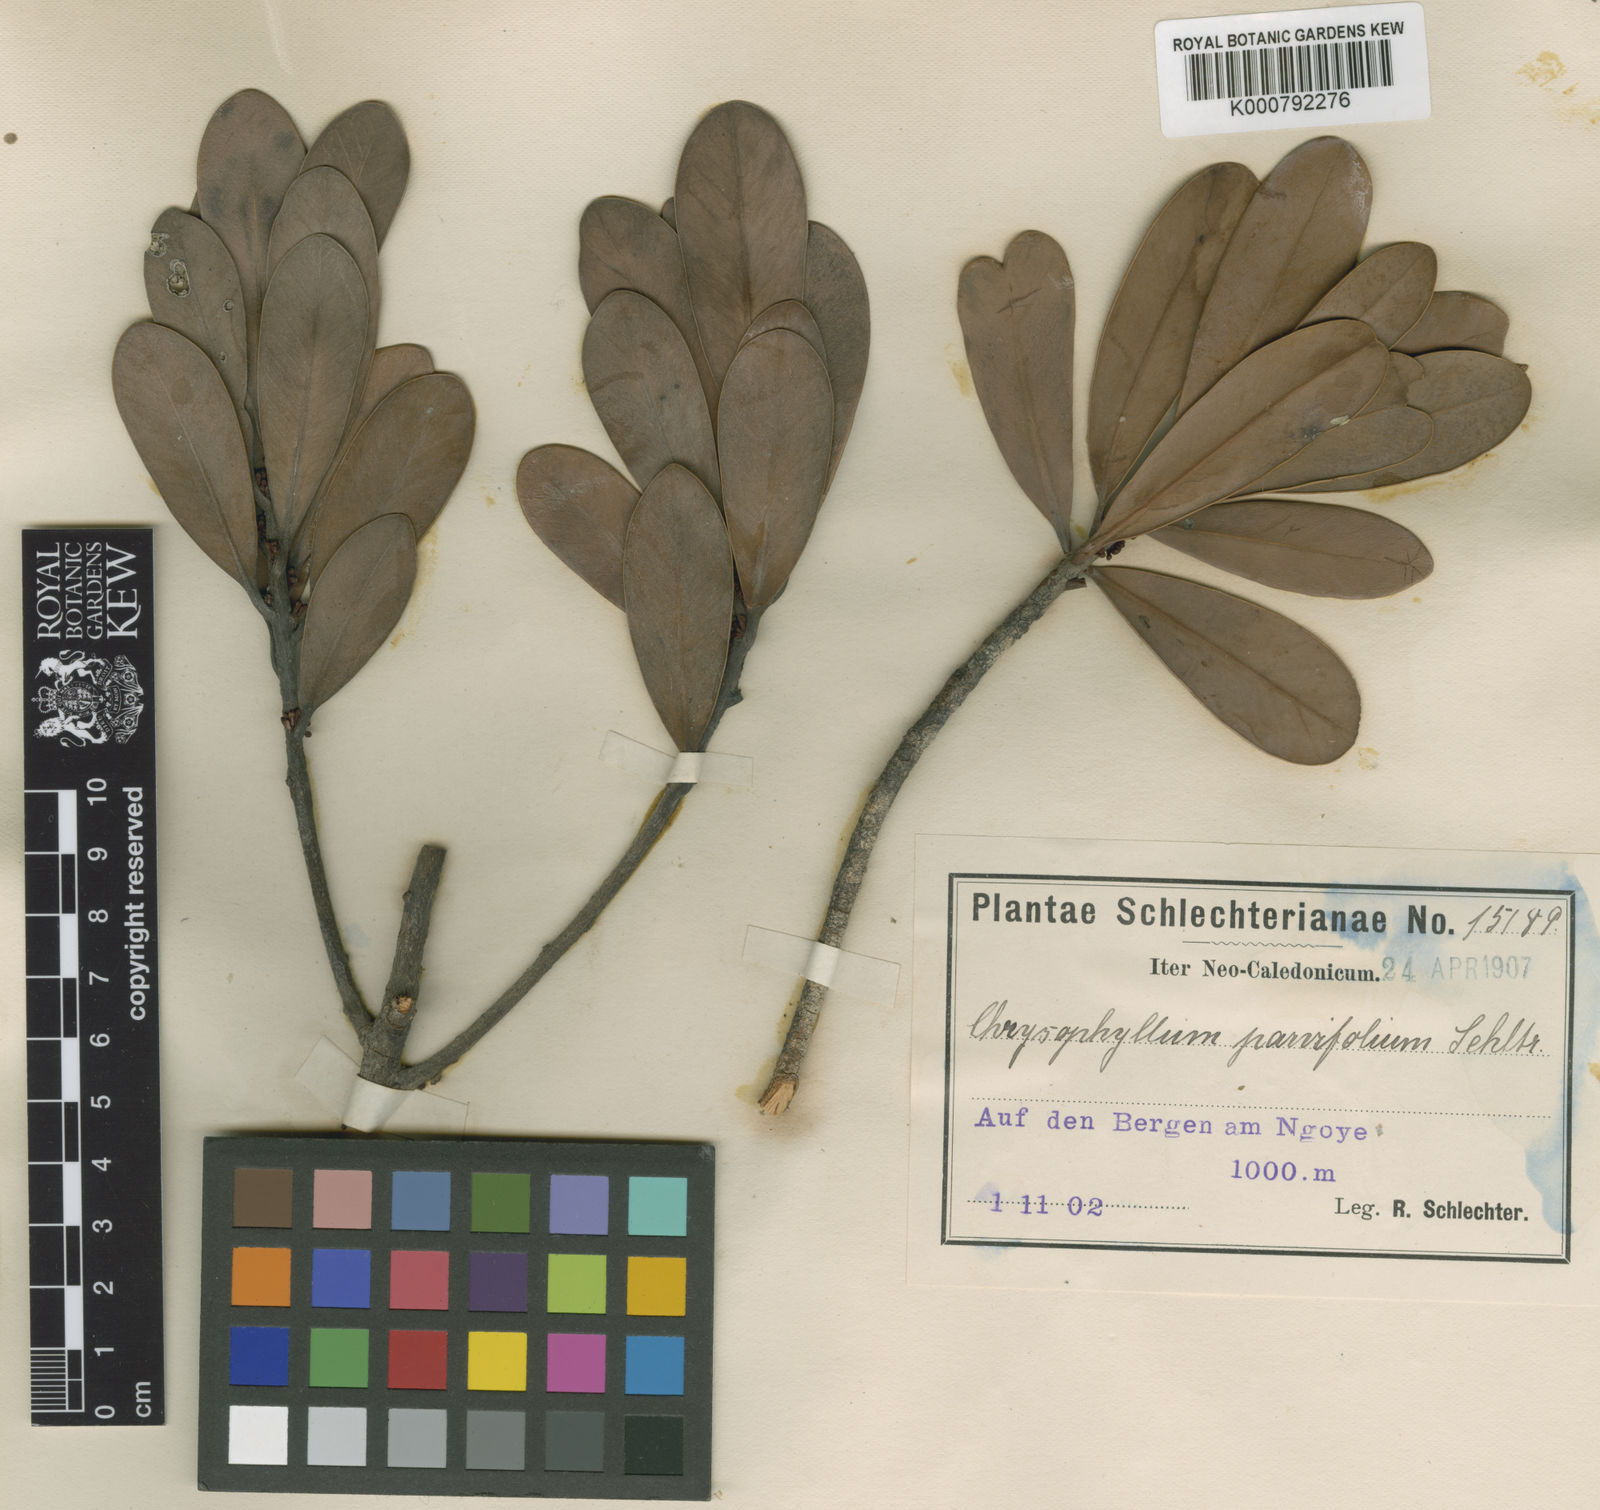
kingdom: Plantae
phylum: Tracheophyta
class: Magnoliopsida
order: Ericales
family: Sapotaceae
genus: Pycnandra
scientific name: Pycnandra lissophylla
